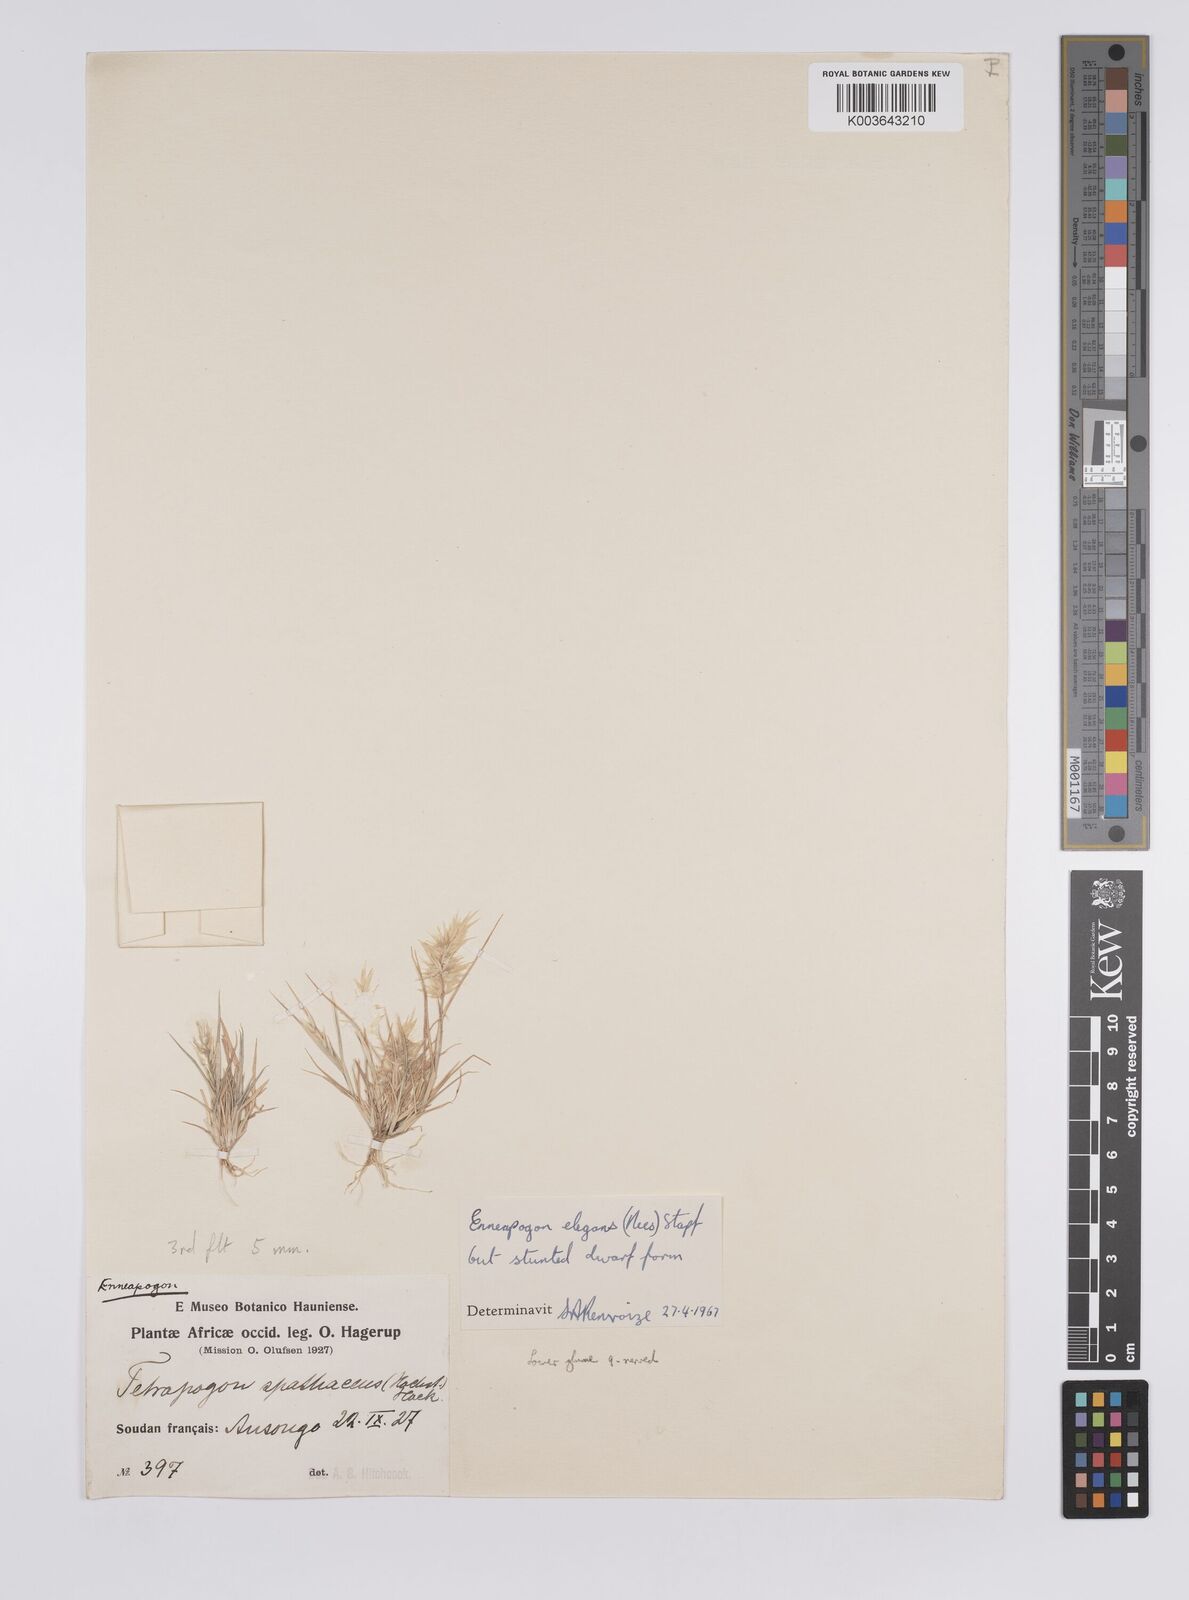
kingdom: Plantae
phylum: Tracheophyta
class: Liliopsida
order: Poales
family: Poaceae
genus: Enneapogon
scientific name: Enneapogon lophotrichus
